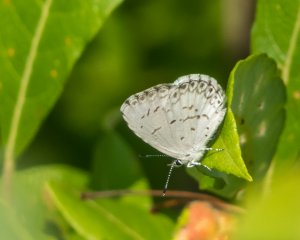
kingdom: Animalia
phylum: Arthropoda
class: Insecta
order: Lepidoptera
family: Lycaenidae
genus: Cyaniris
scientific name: Cyaniris neglecta
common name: Summer Azure
